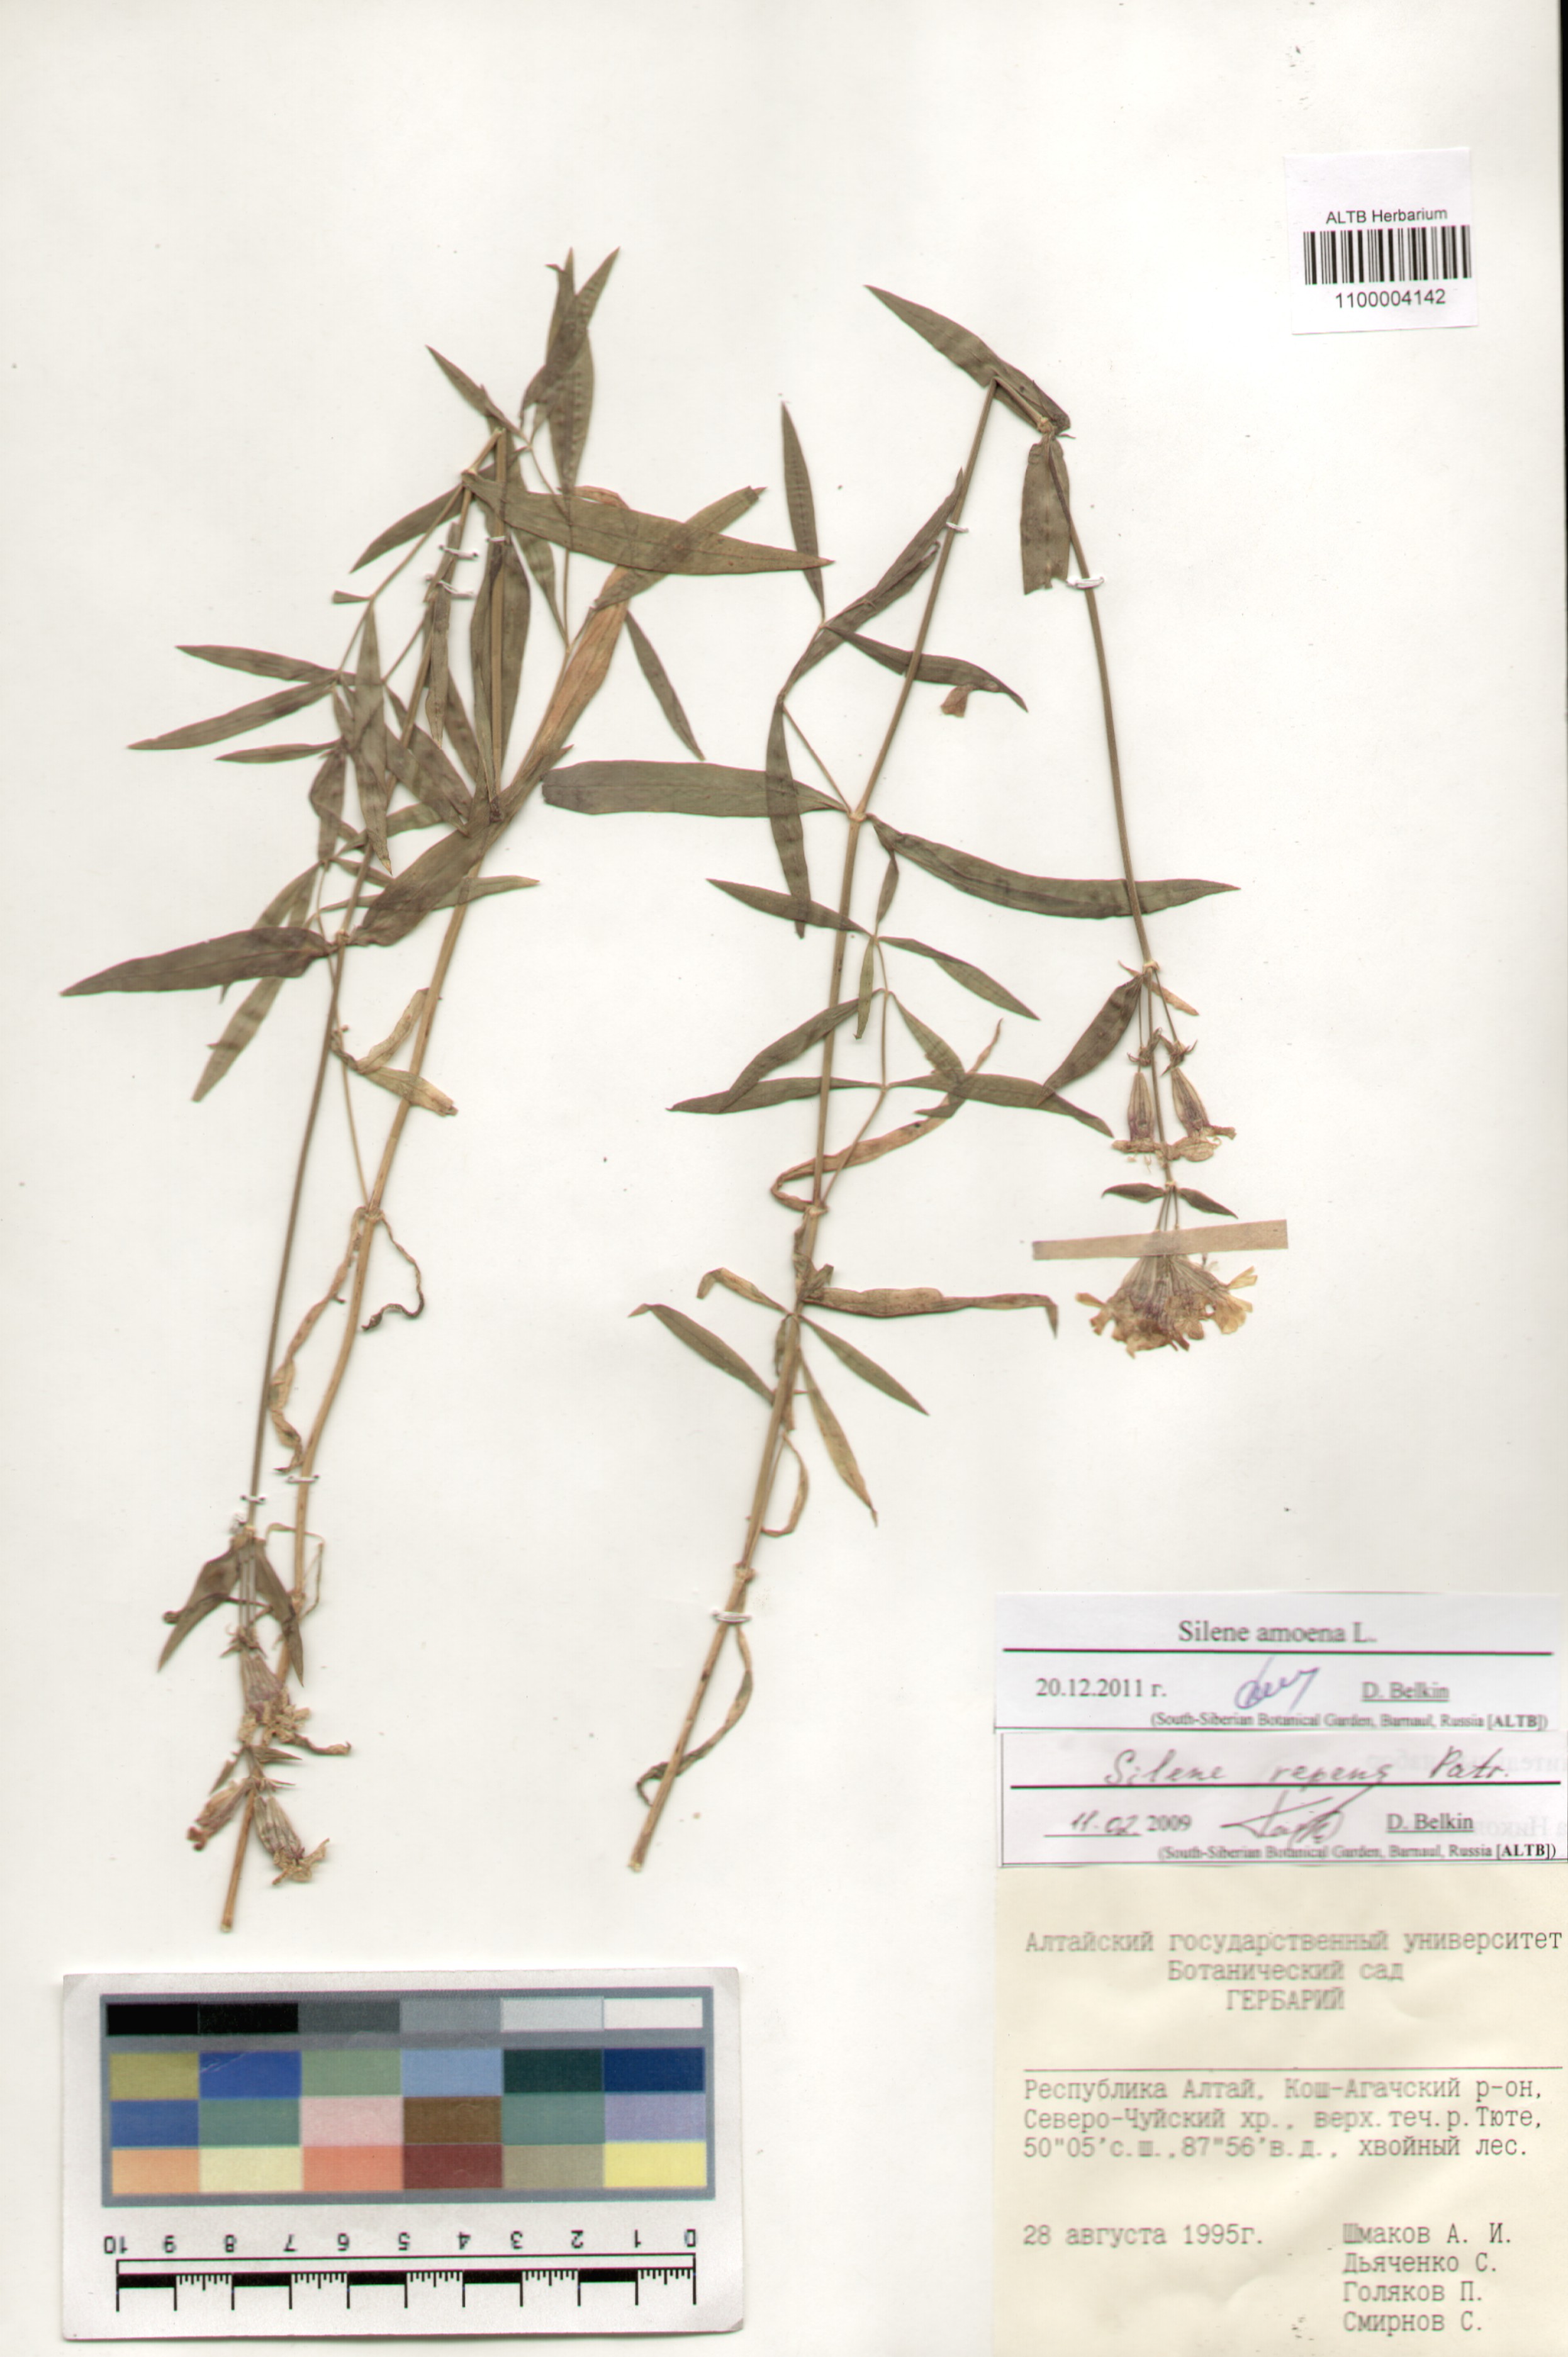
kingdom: Plantae
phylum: Tracheophyta
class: Magnoliopsida
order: Caryophyllales
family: Caryophyllaceae
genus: Silene
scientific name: Silene amoena
